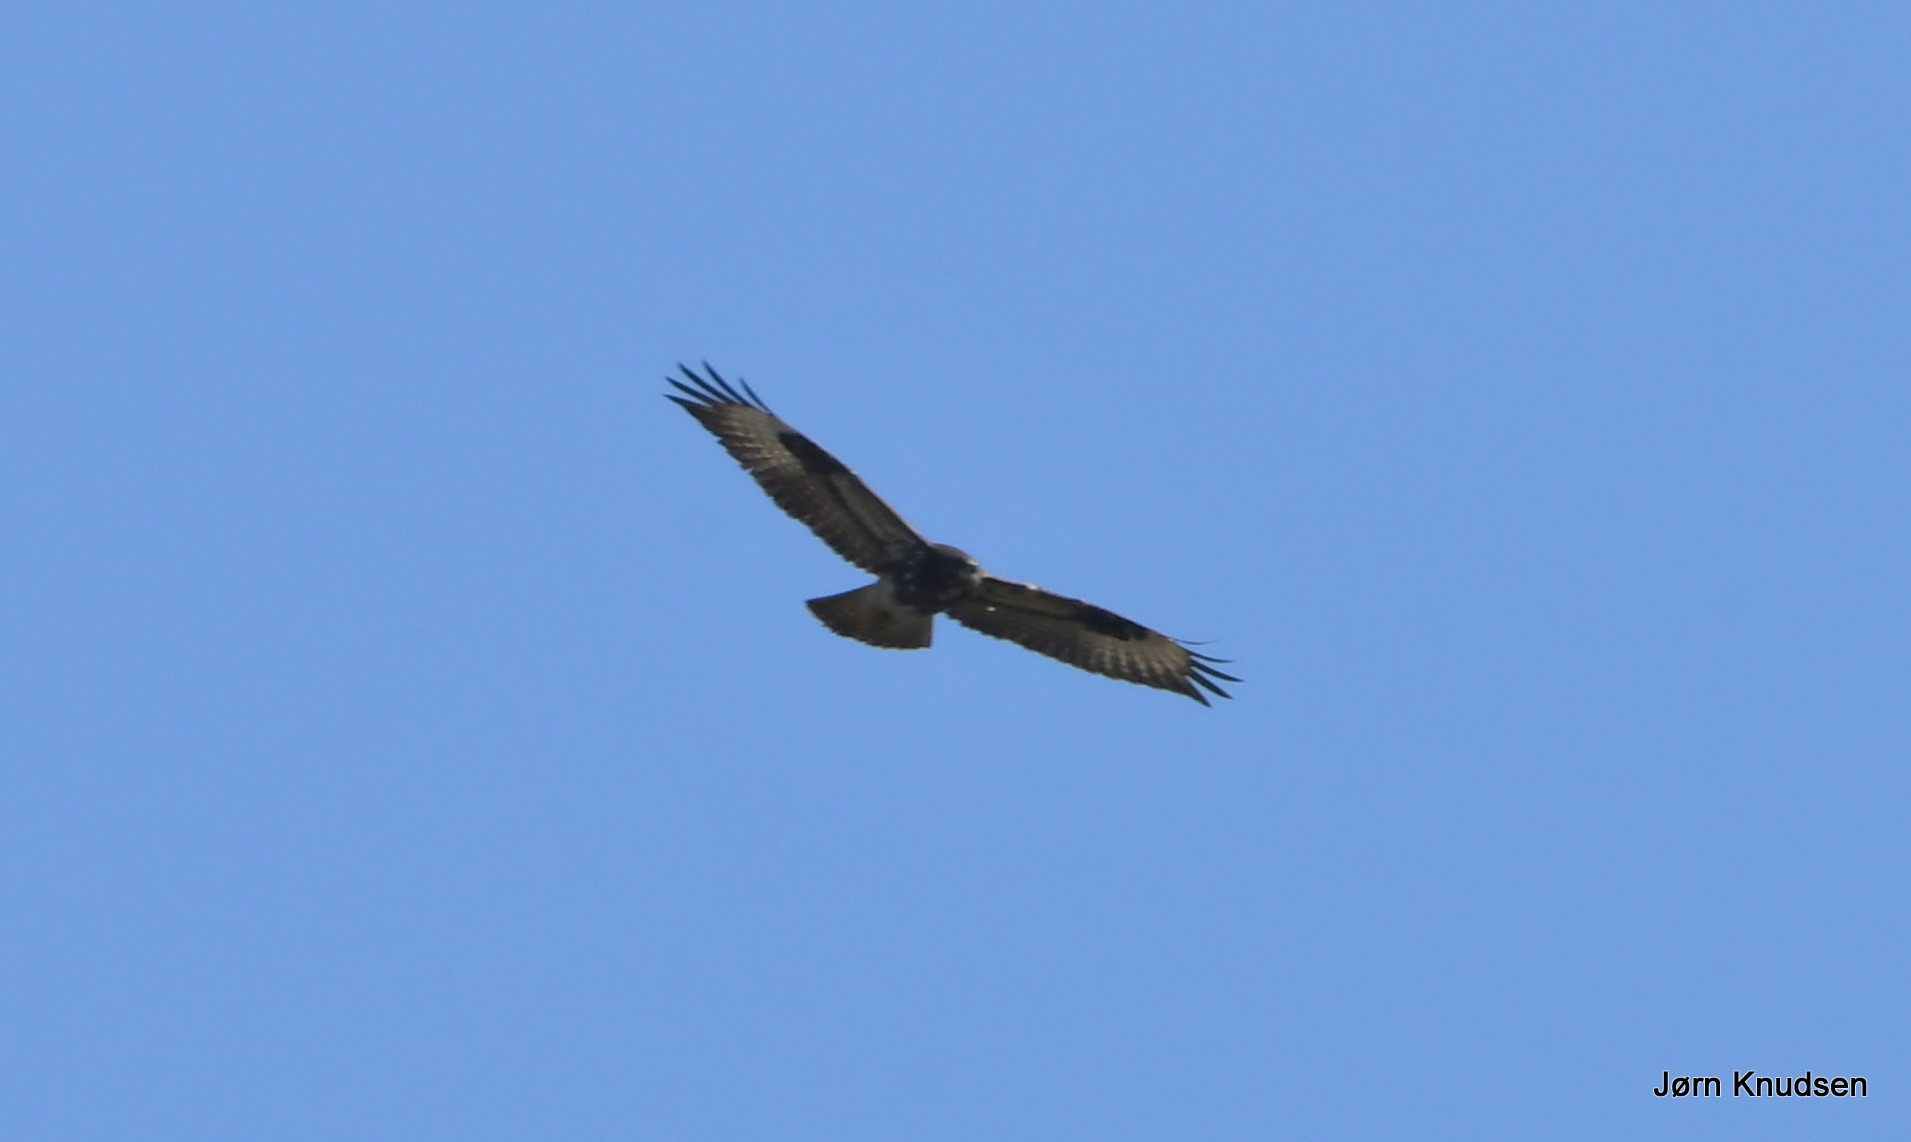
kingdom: Animalia
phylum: Chordata
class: Aves
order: Accipitriformes
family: Accipitridae
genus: Buteo
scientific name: Buteo buteo
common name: Musvåge
